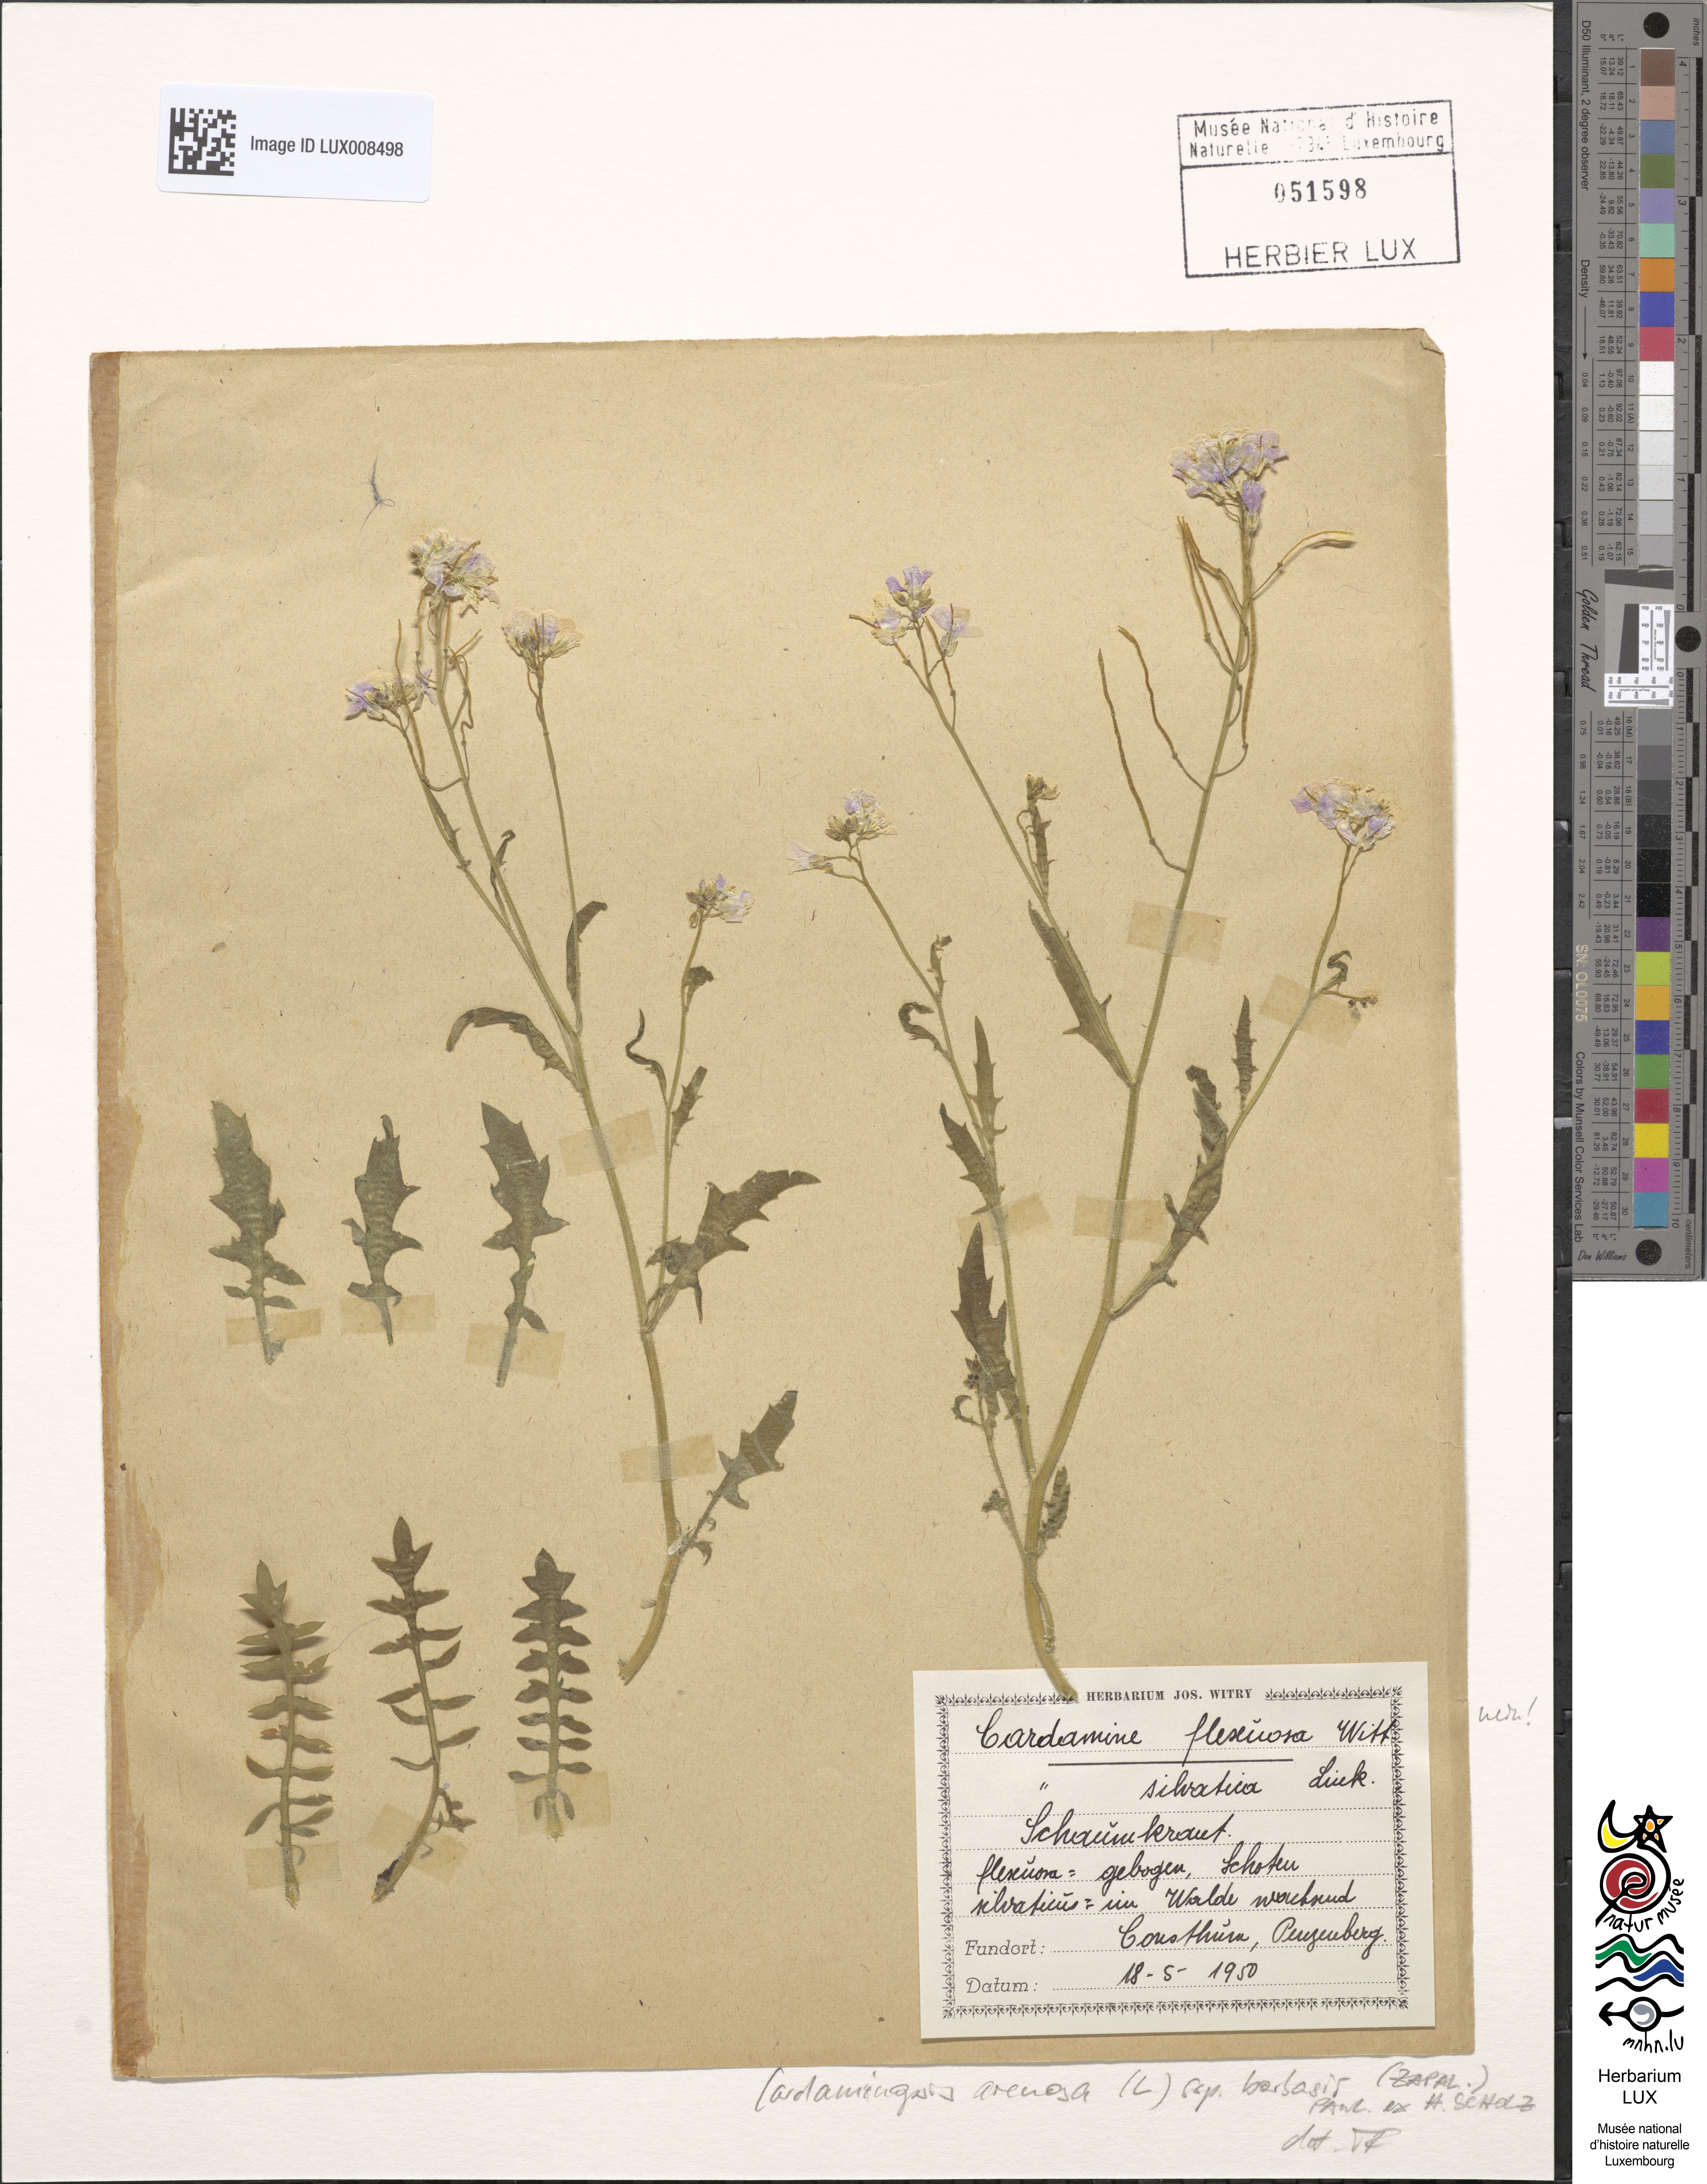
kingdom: Plantae
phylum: Tracheophyta
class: Magnoliopsida
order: Brassicales
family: Brassicaceae
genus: Arabidopsis
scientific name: Arabidopsis arenosa
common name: Sand rock-cress
